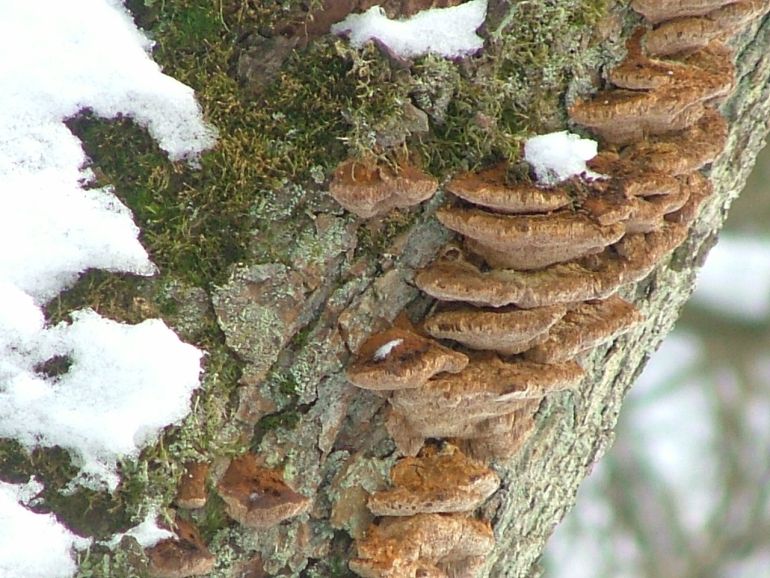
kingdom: Fungi
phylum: Basidiomycota
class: Agaricomycetes
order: Hymenochaetales
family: Hymenochaetaceae
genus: Xanthoporia
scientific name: Xanthoporia radiata
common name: elle-spejlporesvamp
